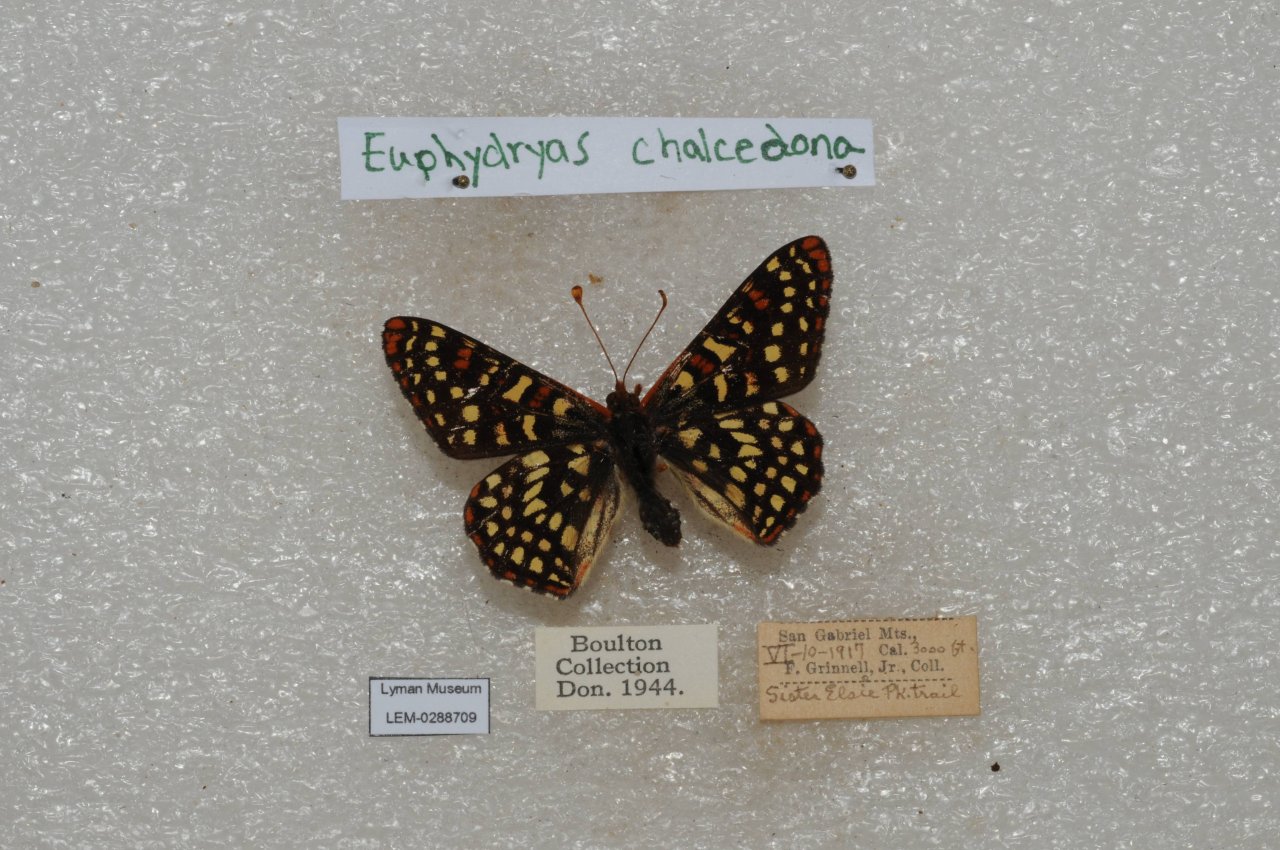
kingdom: Animalia
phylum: Arthropoda
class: Insecta
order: Lepidoptera
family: Nymphalidae
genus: Occidryas
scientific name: Occidryas chalcedona
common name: Chalcedon Checkerspot
